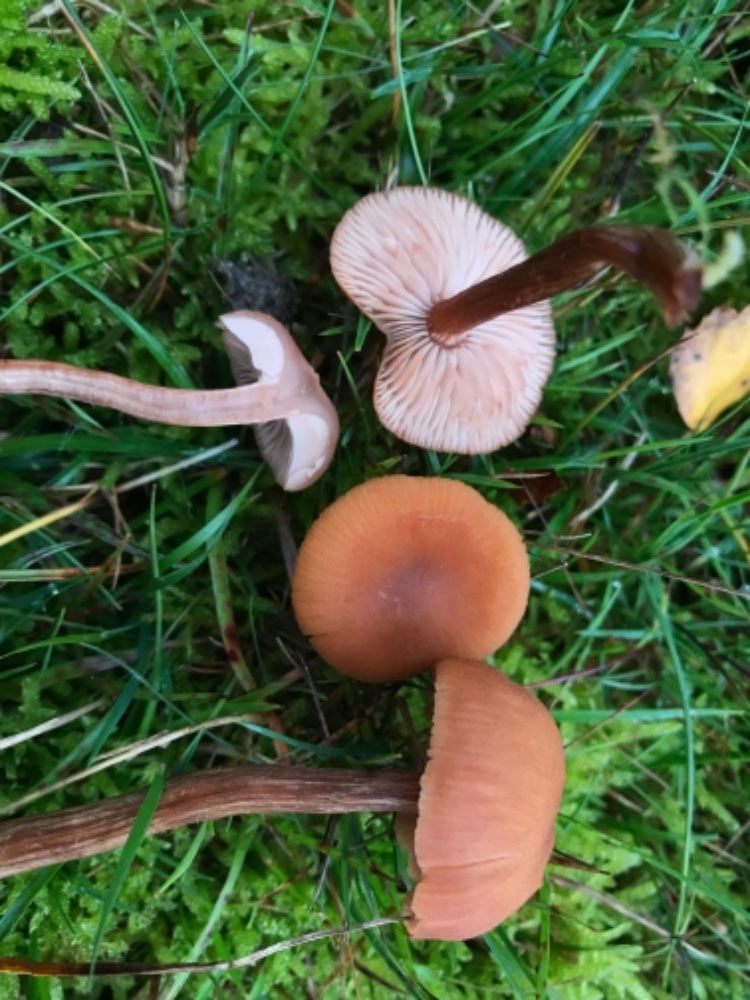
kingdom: Fungi
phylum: Basidiomycota
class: Agaricomycetes
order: Agaricales
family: Hydnangiaceae
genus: Laccaria
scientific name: Laccaria proxima
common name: stor ametysthat
